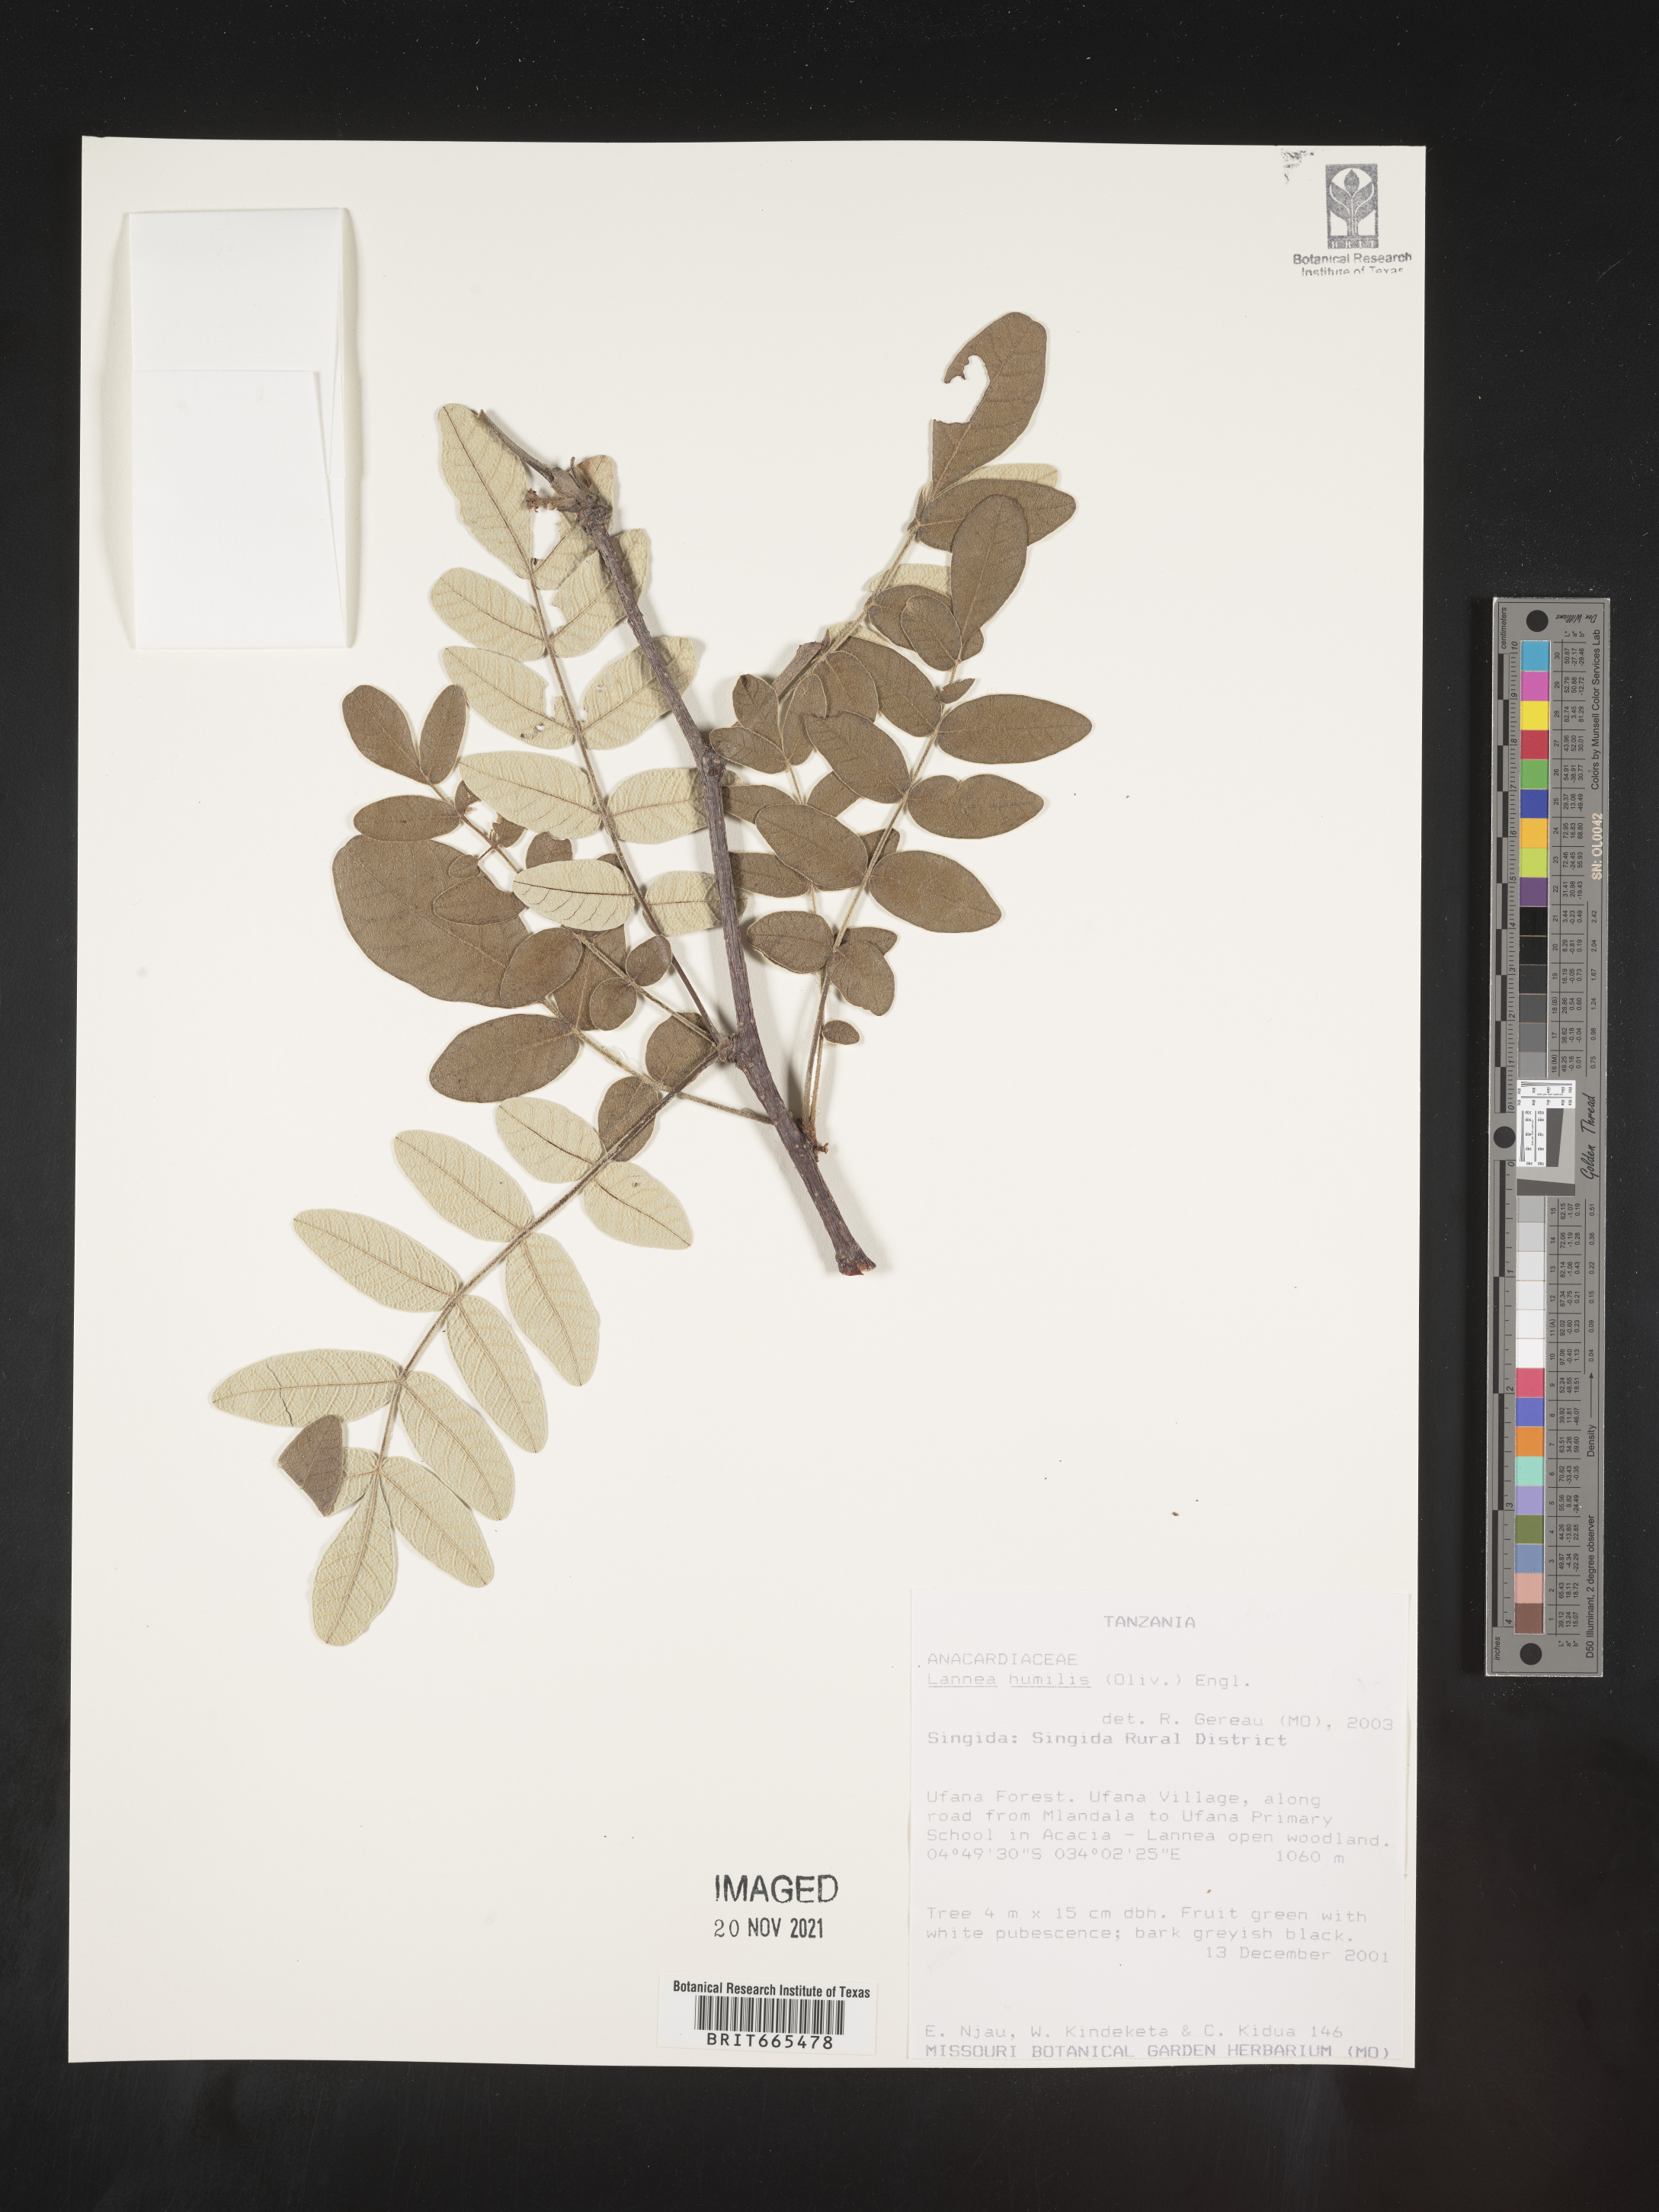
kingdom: Plantae
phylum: Tracheophyta
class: Magnoliopsida
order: Sapindales
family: Anacardiaceae
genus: Lannea
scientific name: Lannea
